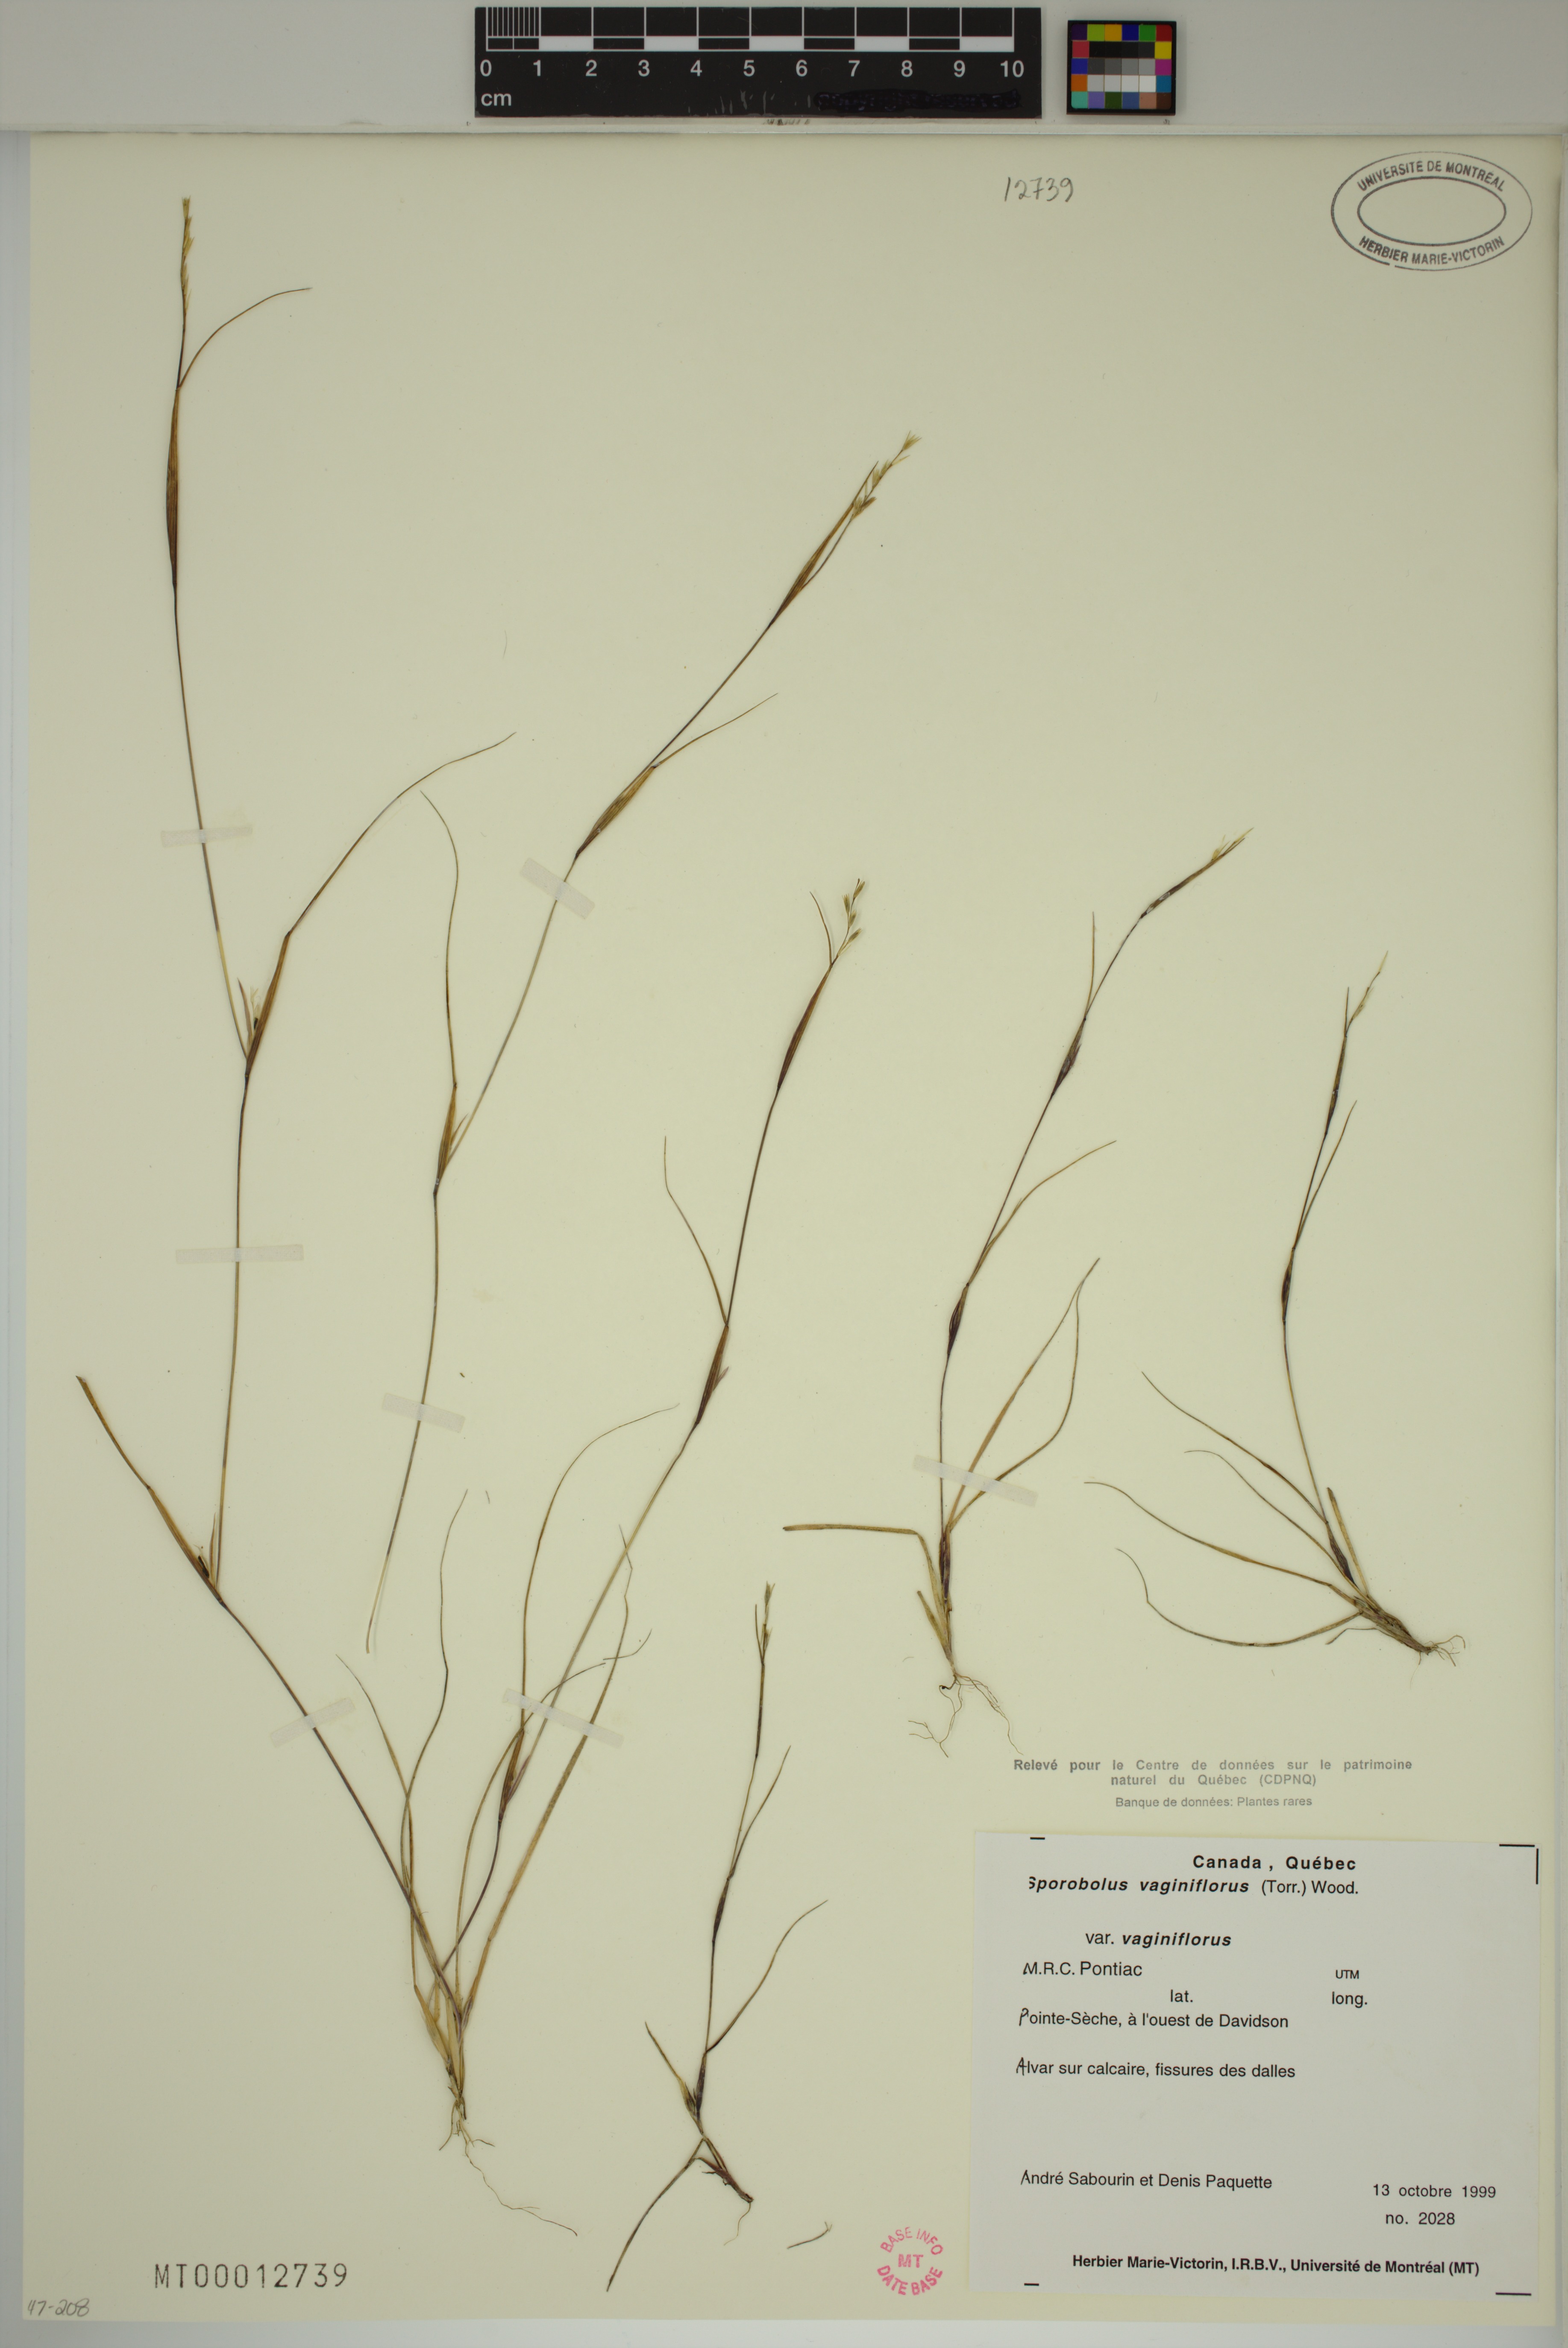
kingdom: Plantae
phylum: Tracheophyta
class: Liliopsida
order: Poales
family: Poaceae
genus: Sporobolus
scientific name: Sporobolus vaginiflorus
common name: Poverty dropseed
